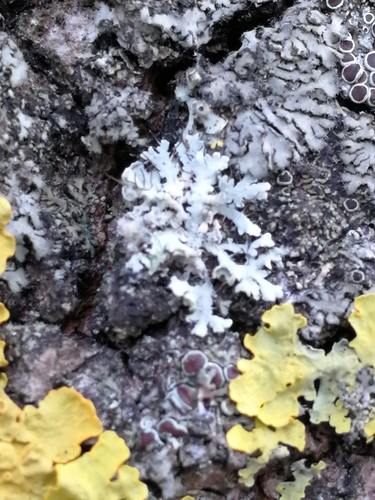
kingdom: Fungi
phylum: Ascomycota
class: Lecanoromycetes
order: Caliciales
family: Physciaceae
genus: Physcia
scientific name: Physcia adscendens
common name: Hooded rosette lichen
